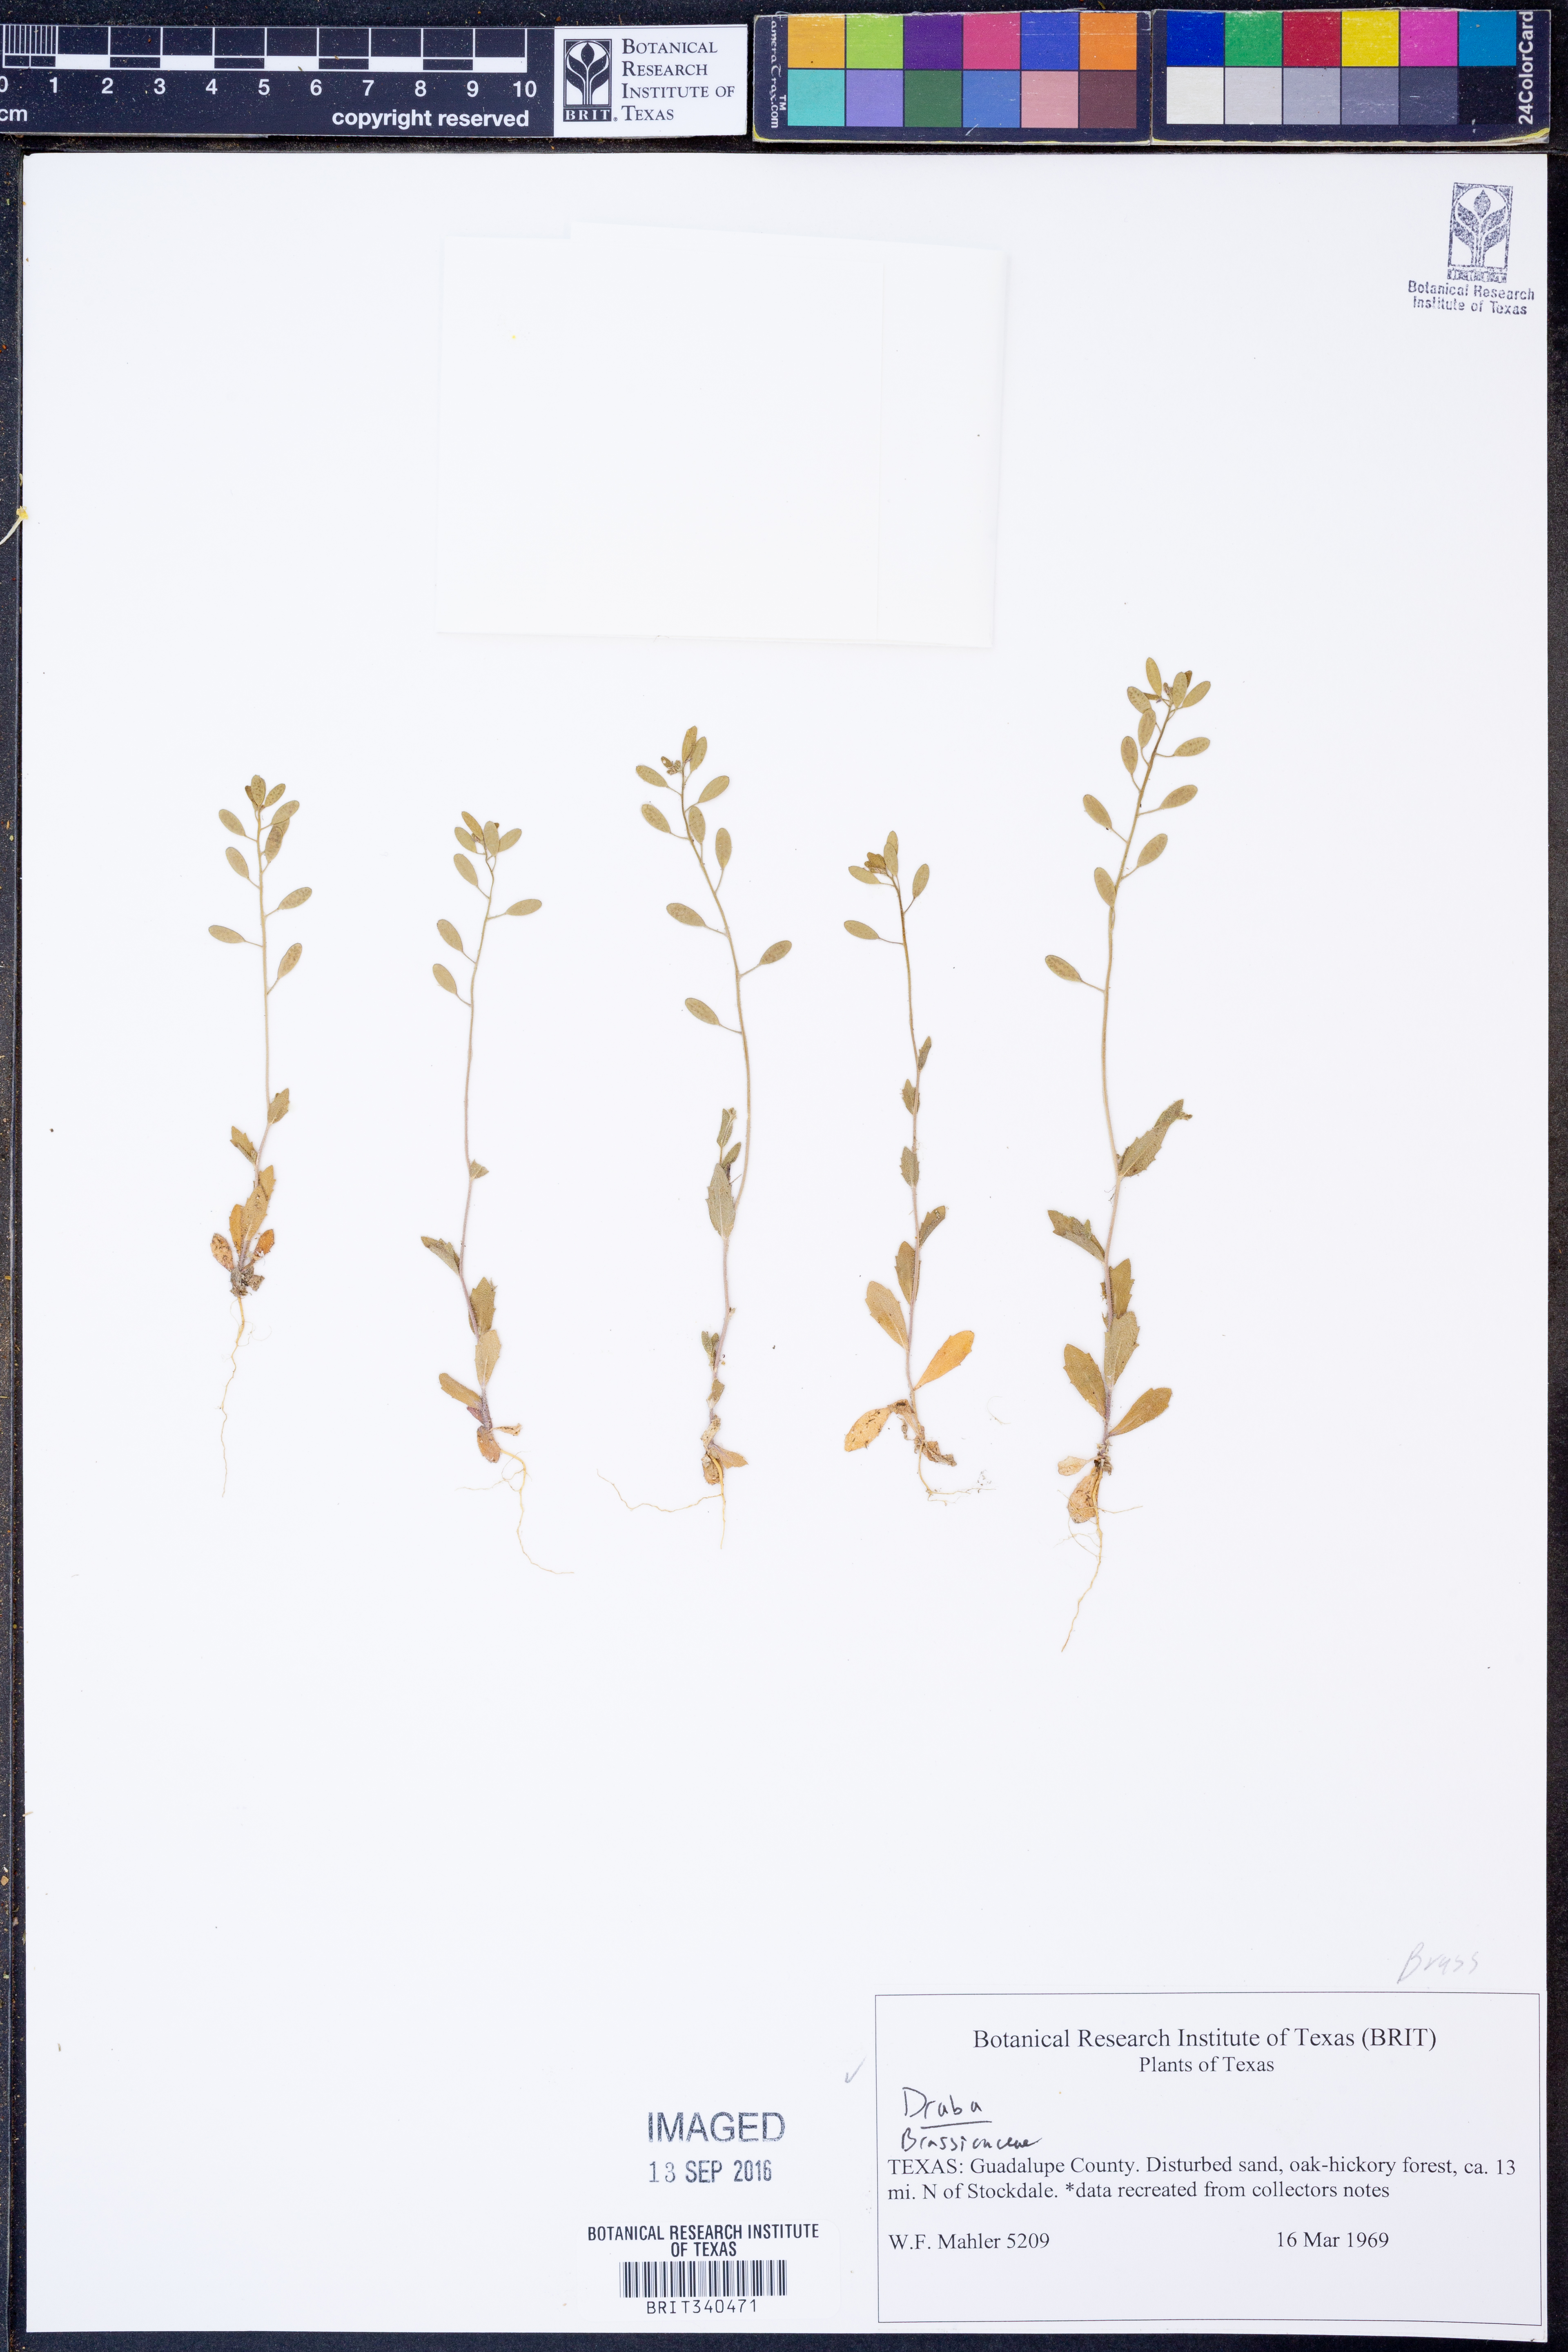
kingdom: Plantae
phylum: Tracheophyta
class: Magnoliopsida
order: Brassicales
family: Brassicaceae
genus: Draba
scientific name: Draba
